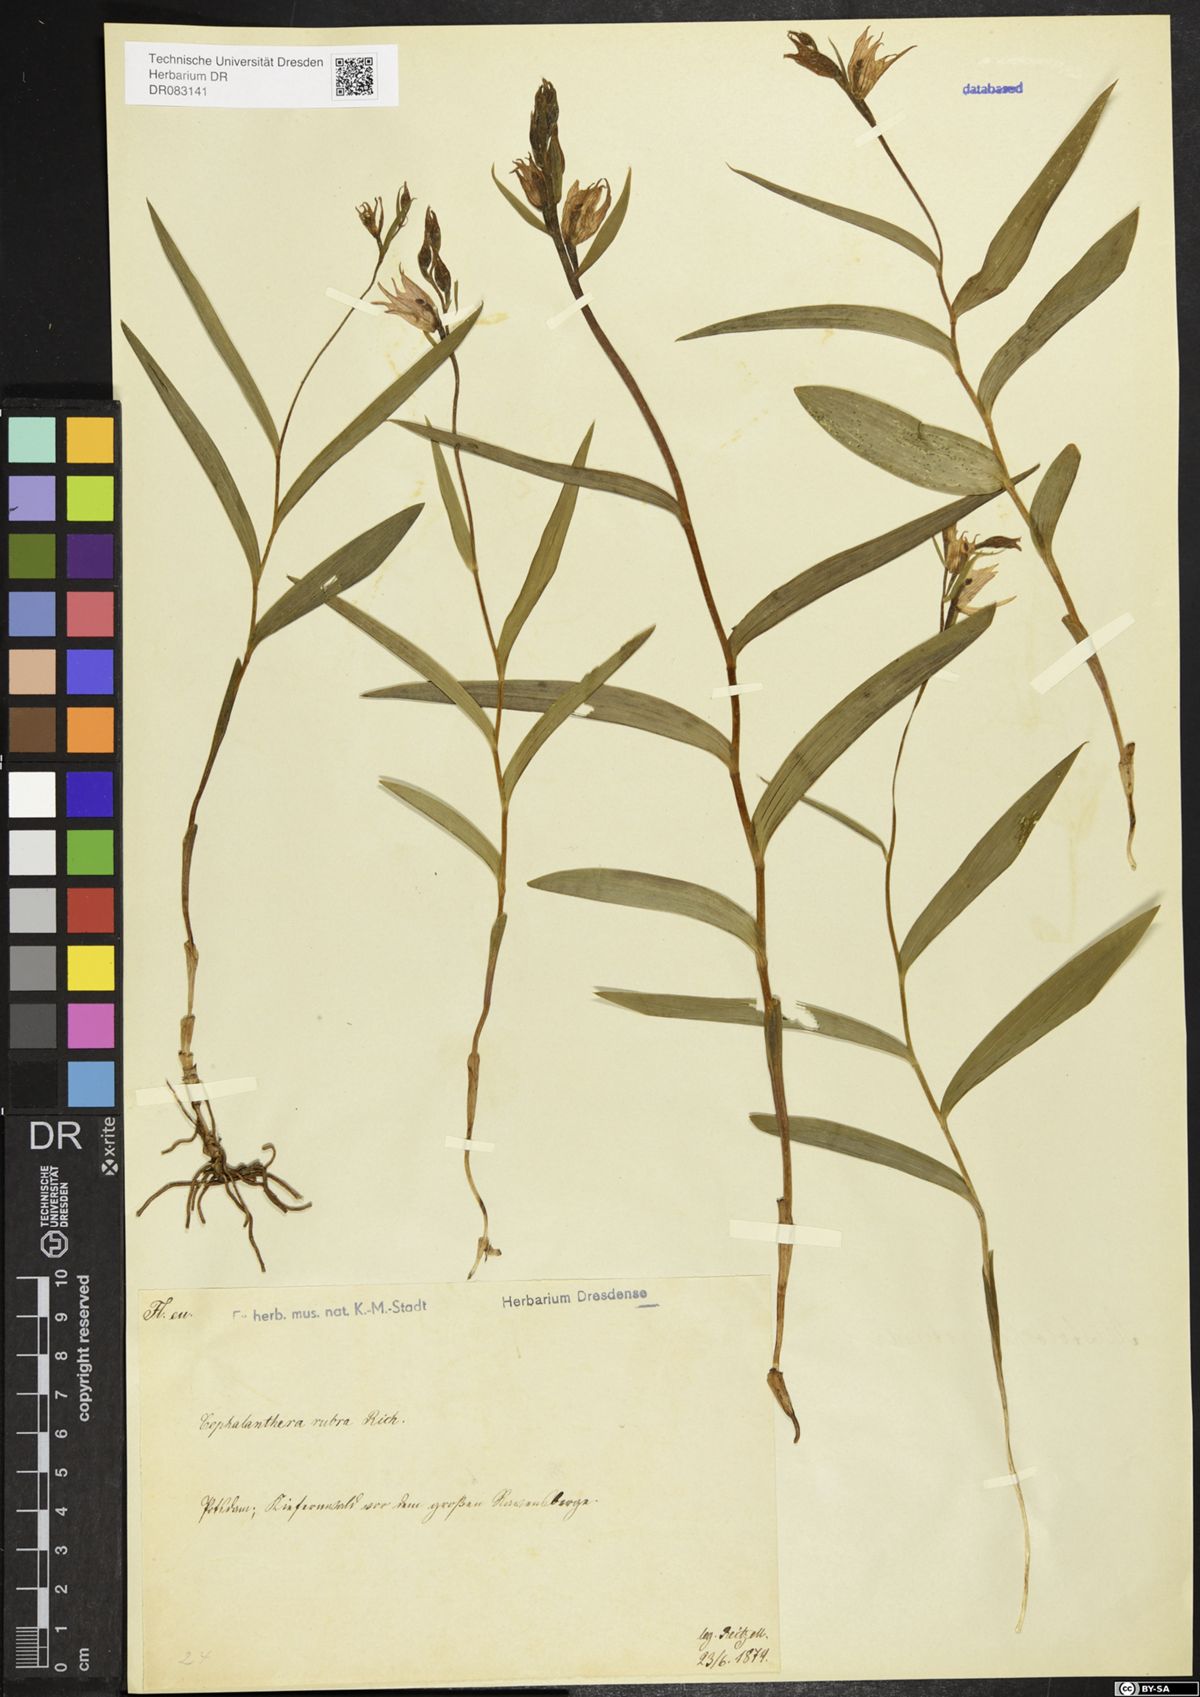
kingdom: Plantae
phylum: Tracheophyta
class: Liliopsida
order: Asparagales
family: Orchidaceae
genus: Cephalanthera
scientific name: Cephalanthera rubra
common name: Red helleborine
